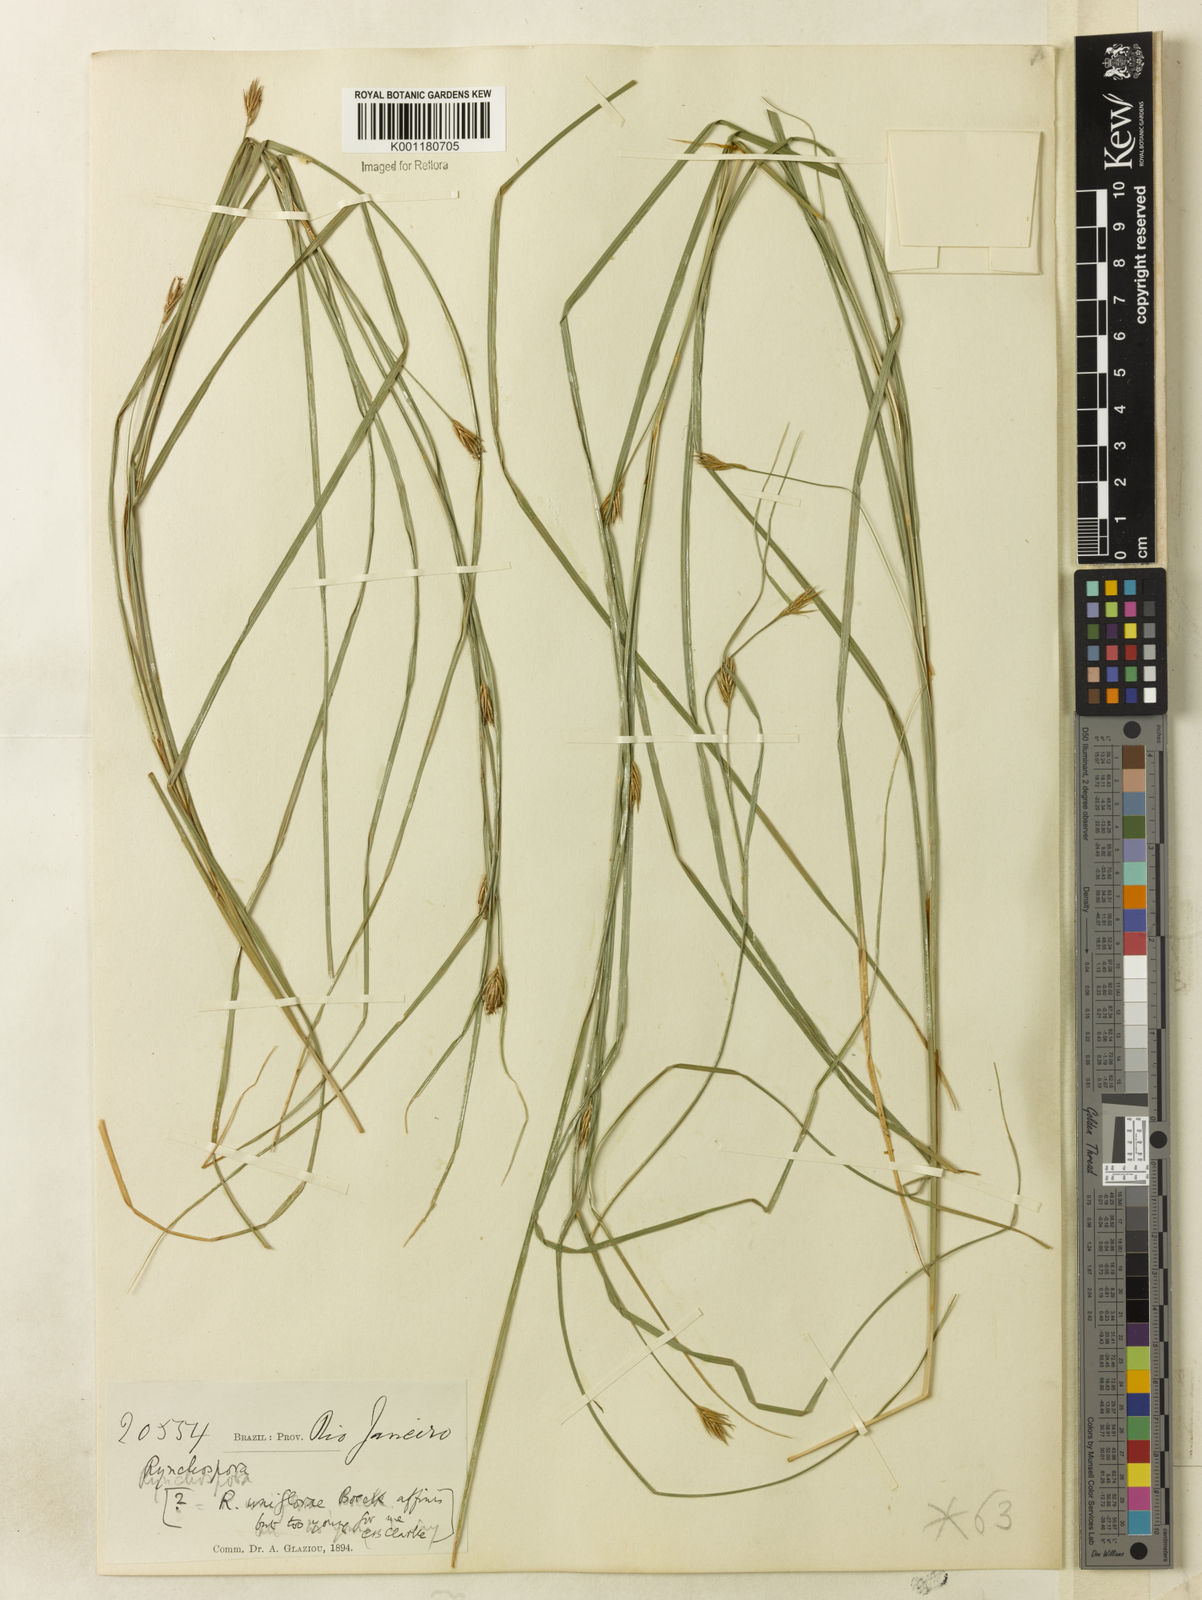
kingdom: Plantae
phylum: Tracheophyta
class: Liliopsida
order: Poales
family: Cyperaceae
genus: Rhynchospora
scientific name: Rhynchospora biflora
